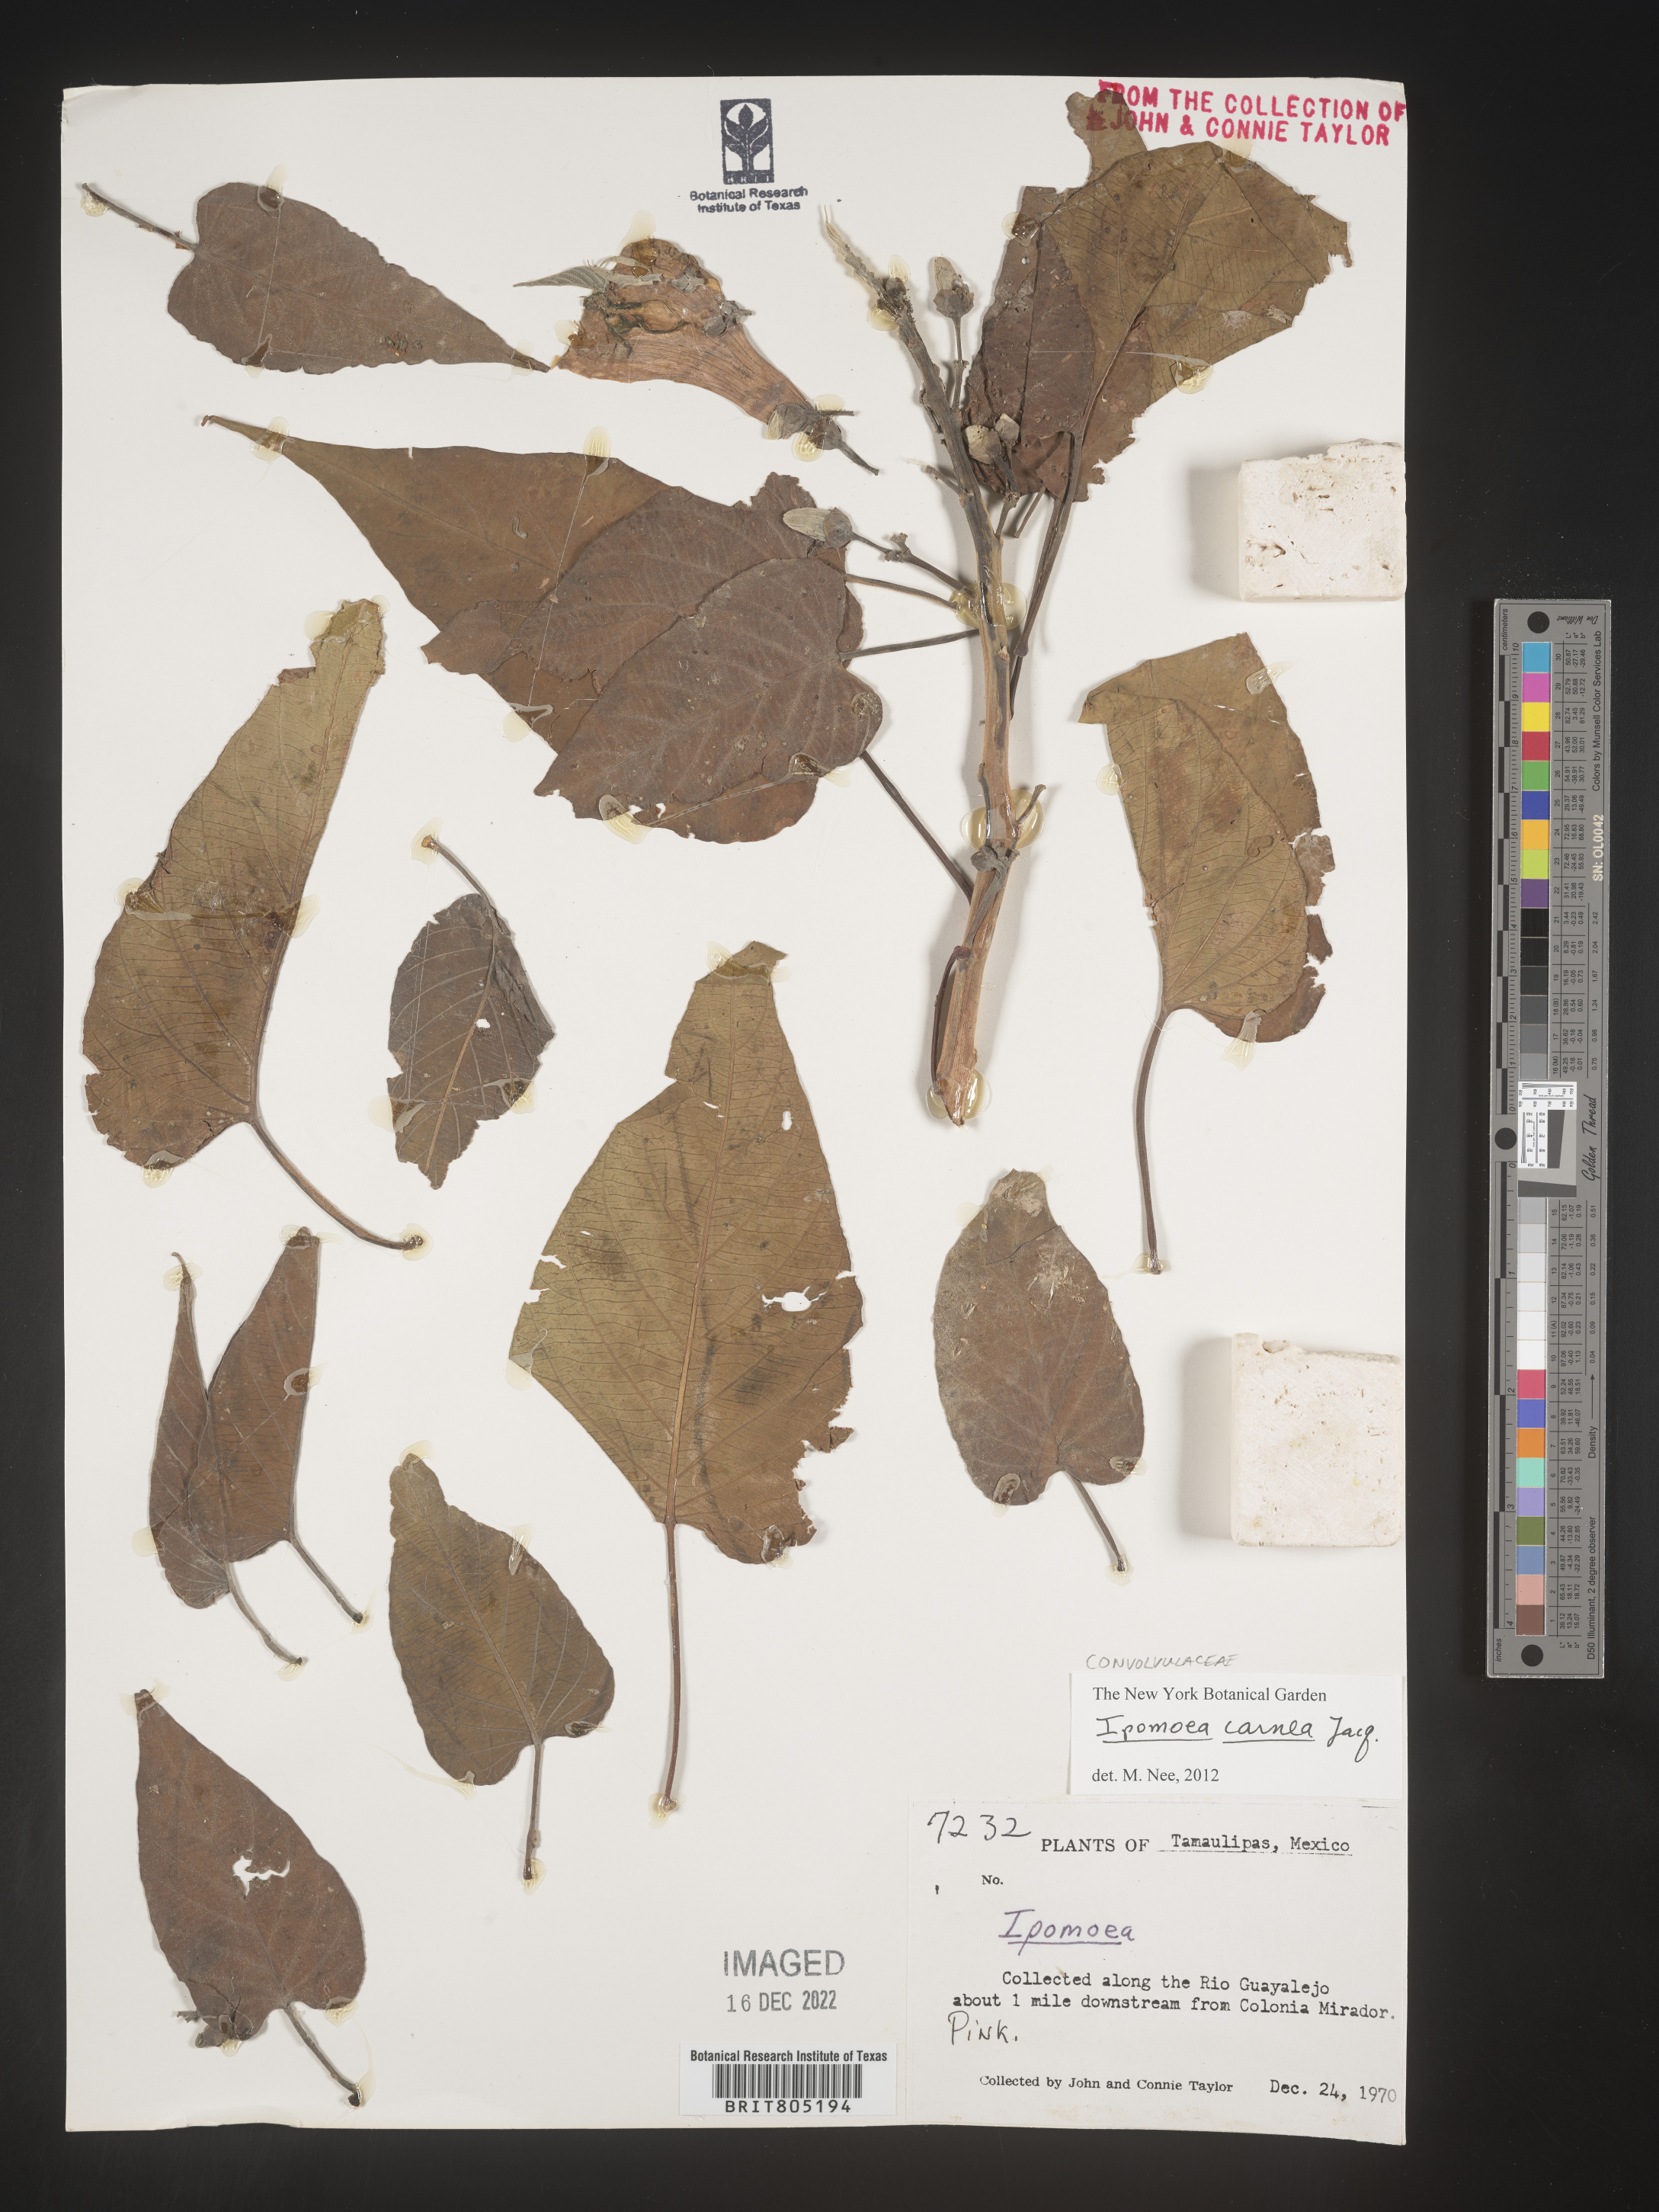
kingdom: Plantae
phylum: Tracheophyta
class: Magnoliopsida
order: Solanales
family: Convolvulaceae
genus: Ipomoea
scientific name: Ipomoea
